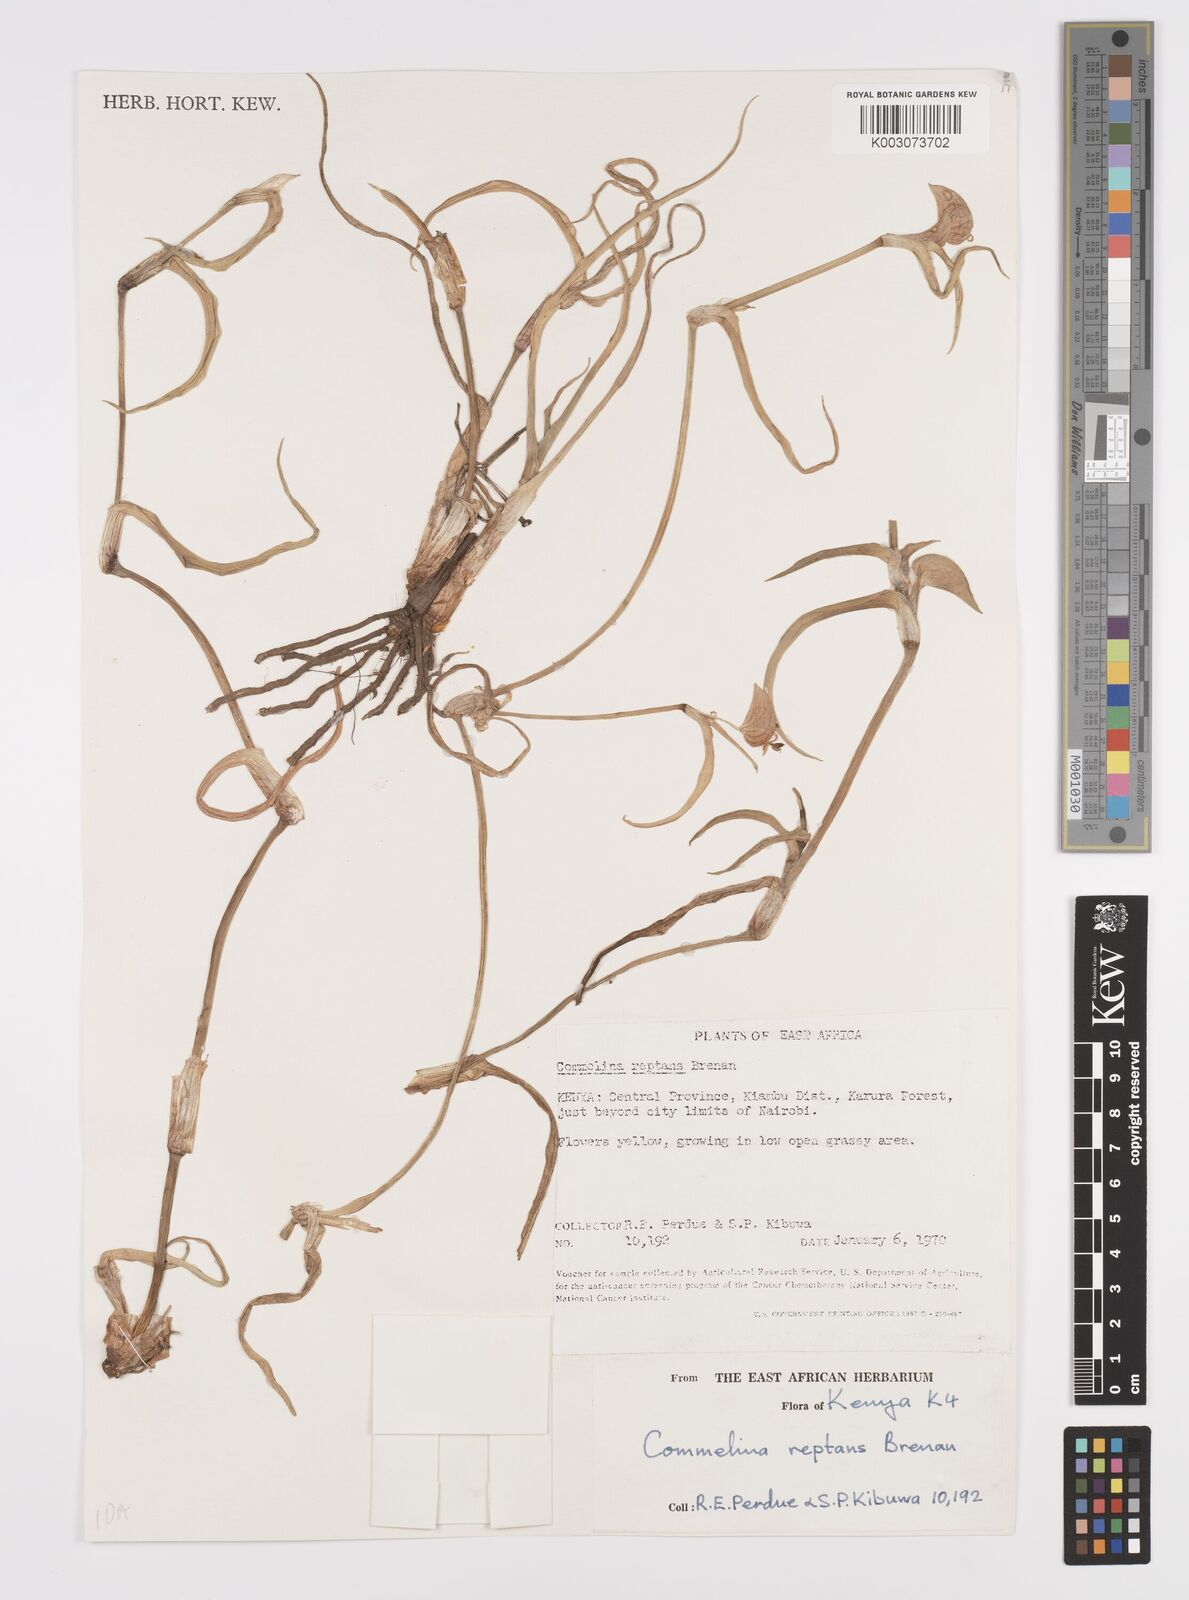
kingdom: Plantae
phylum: Tracheophyta
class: Liliopsida
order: Commelinales
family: Commelinaceae
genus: Commelina
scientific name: Commelina reptans
